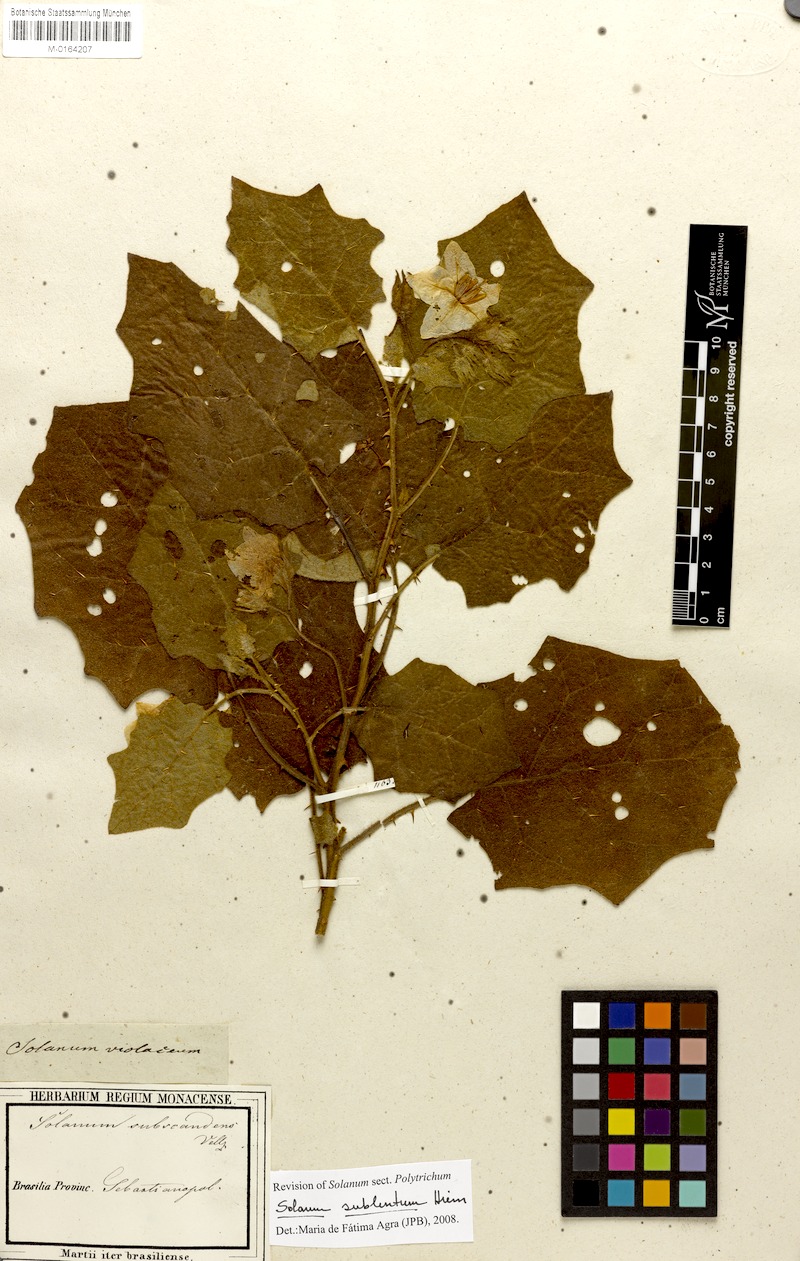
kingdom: Plantae
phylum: Tracheophyta
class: Magnoliopsida
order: Solanales
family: Solanaceae
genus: Solanum
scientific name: Solanum sublentum
